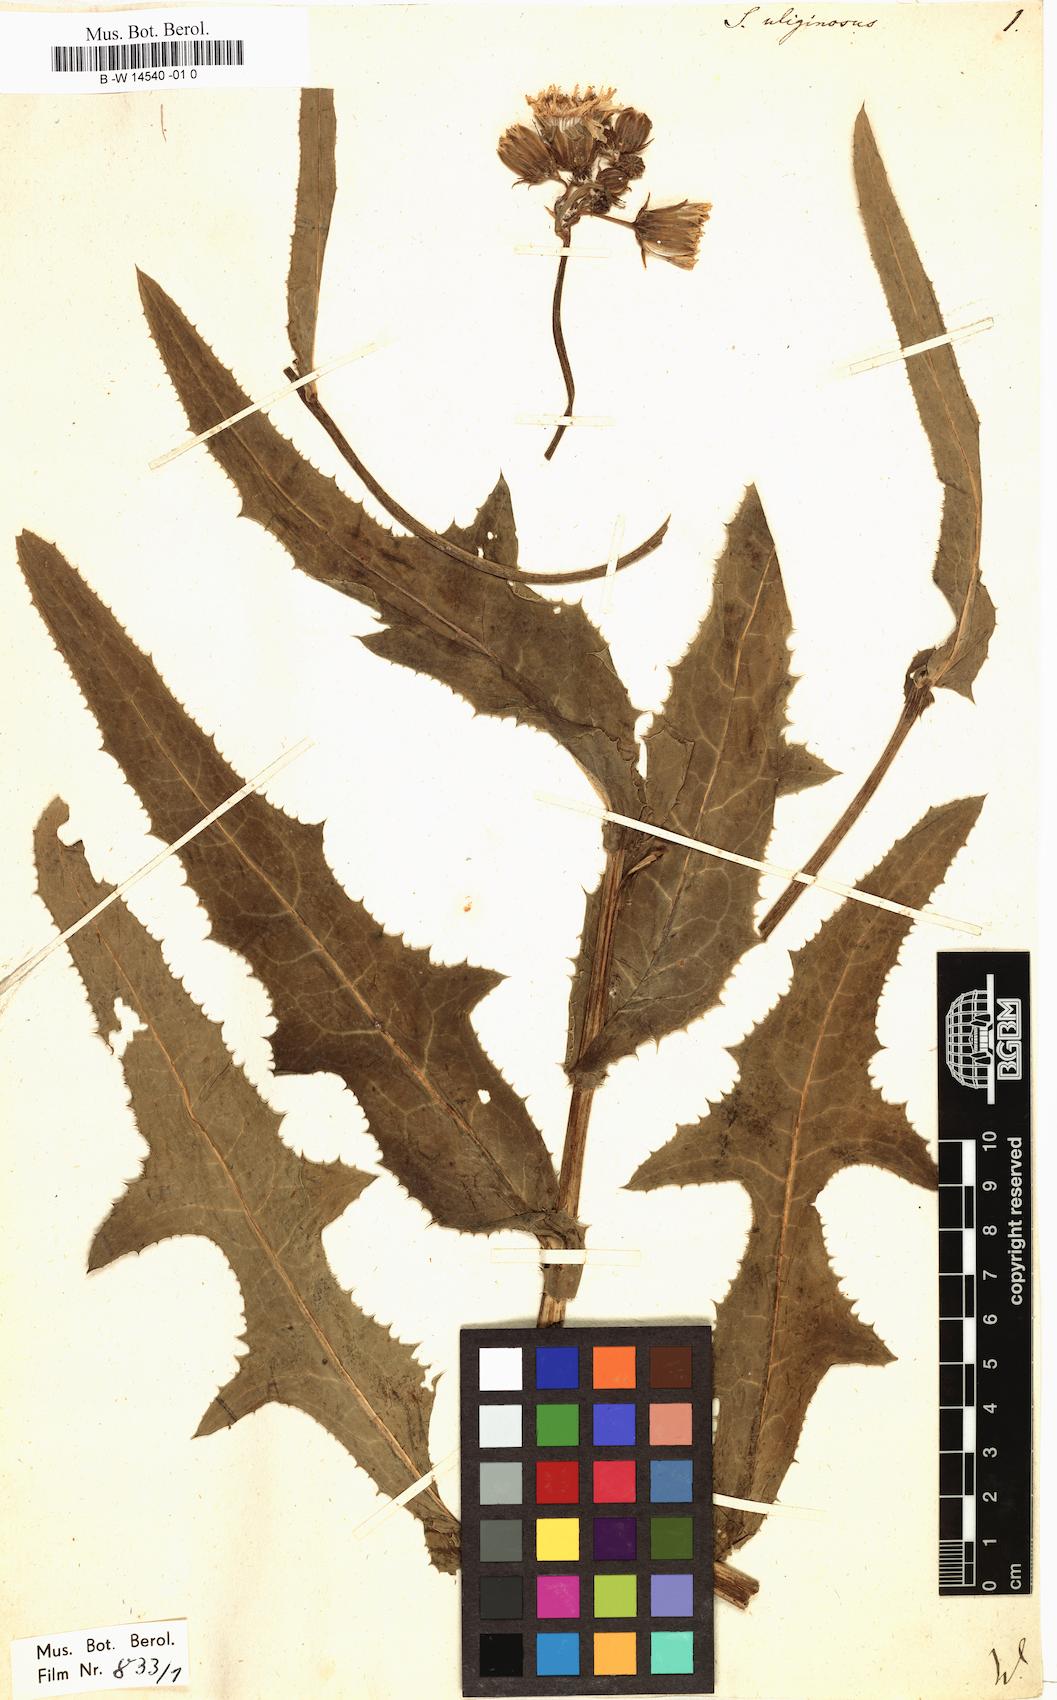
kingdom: Plantae
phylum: Tracheophyta
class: Magnoliopsida
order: Asterales
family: Asteraceae
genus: Sonchus
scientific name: Sonchus arvensis
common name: Perennial sow-thistle
